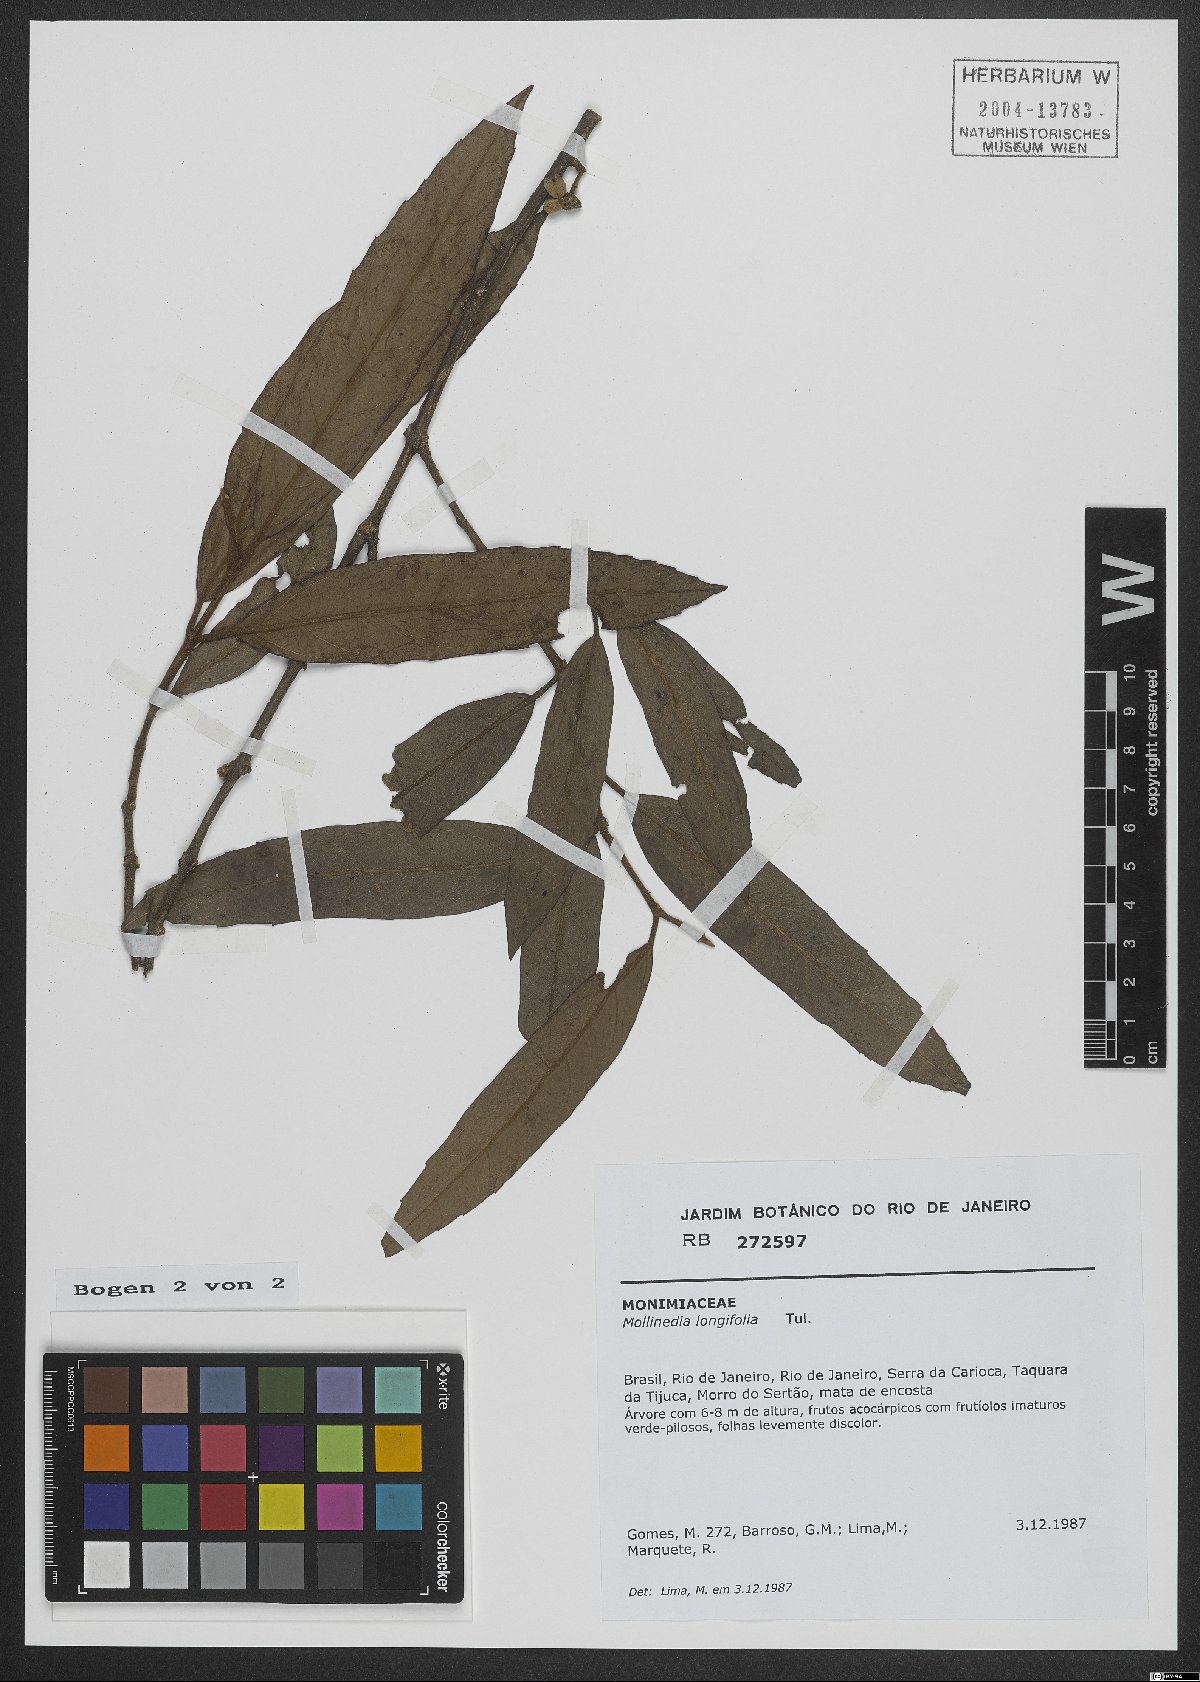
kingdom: Plantae
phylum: Tracheophyta
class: Magnoliopsida
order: Laurales
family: Monimiaceae
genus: Mollinedia
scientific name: Mollinedia longifolia
